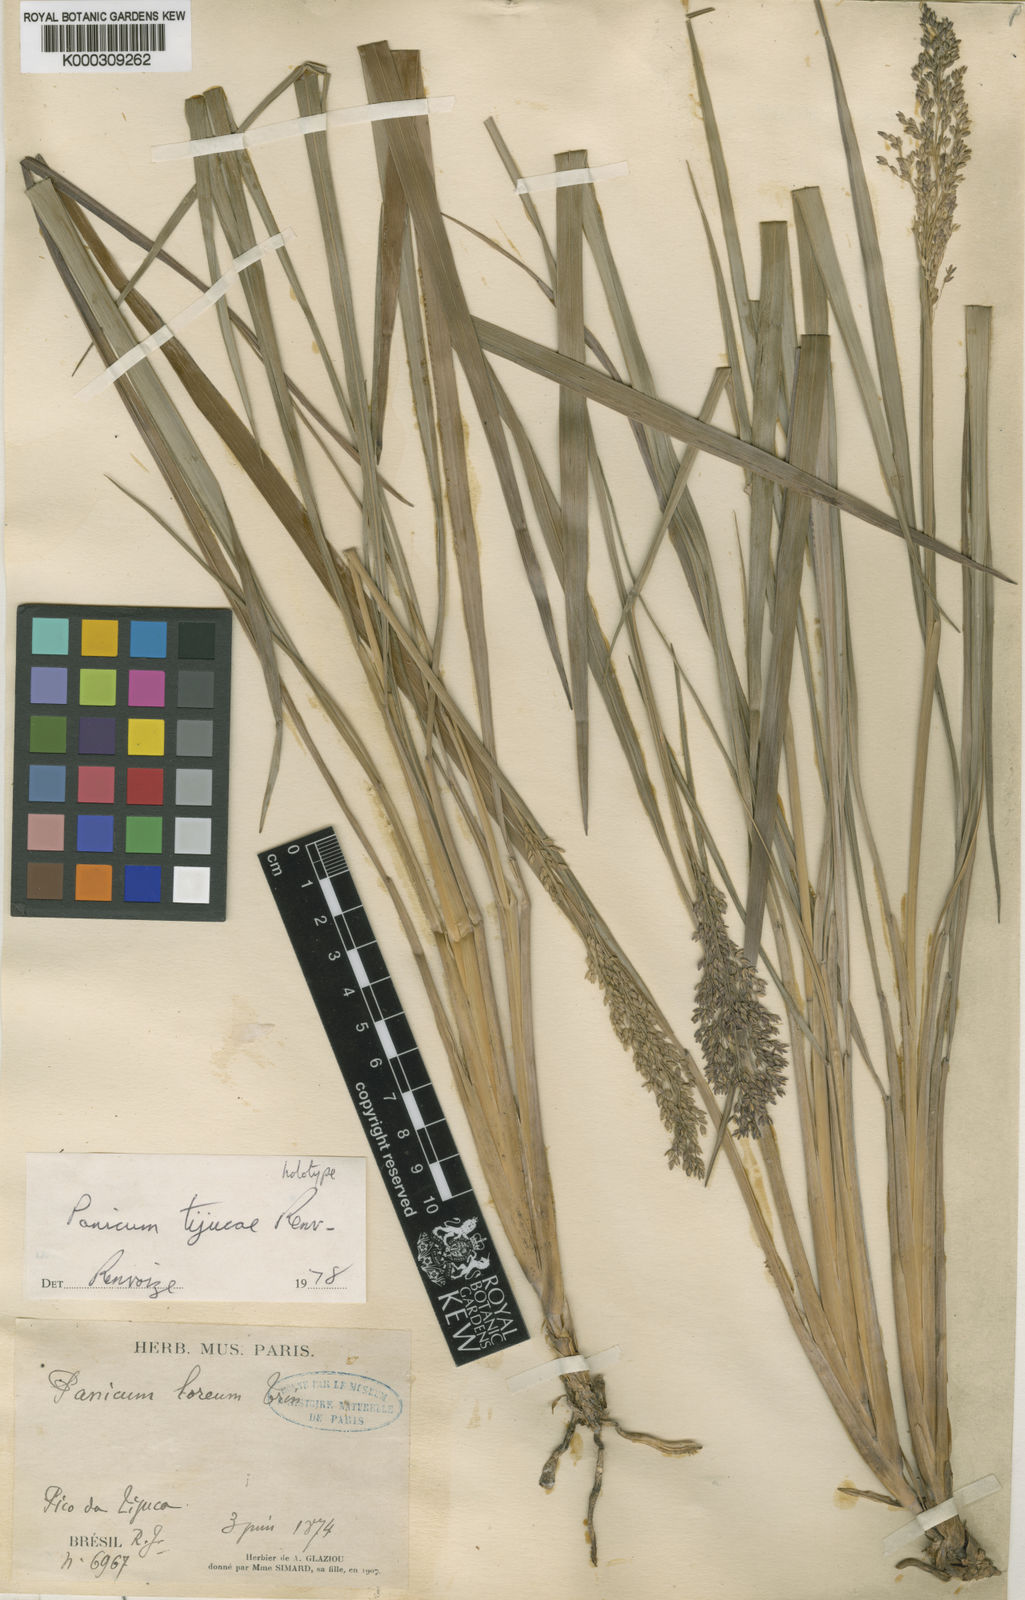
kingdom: Plantae
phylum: Tracheophyta
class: Liliopsida
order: Poales
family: Poaceae
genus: Apochloa
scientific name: Apochloa tijucae
